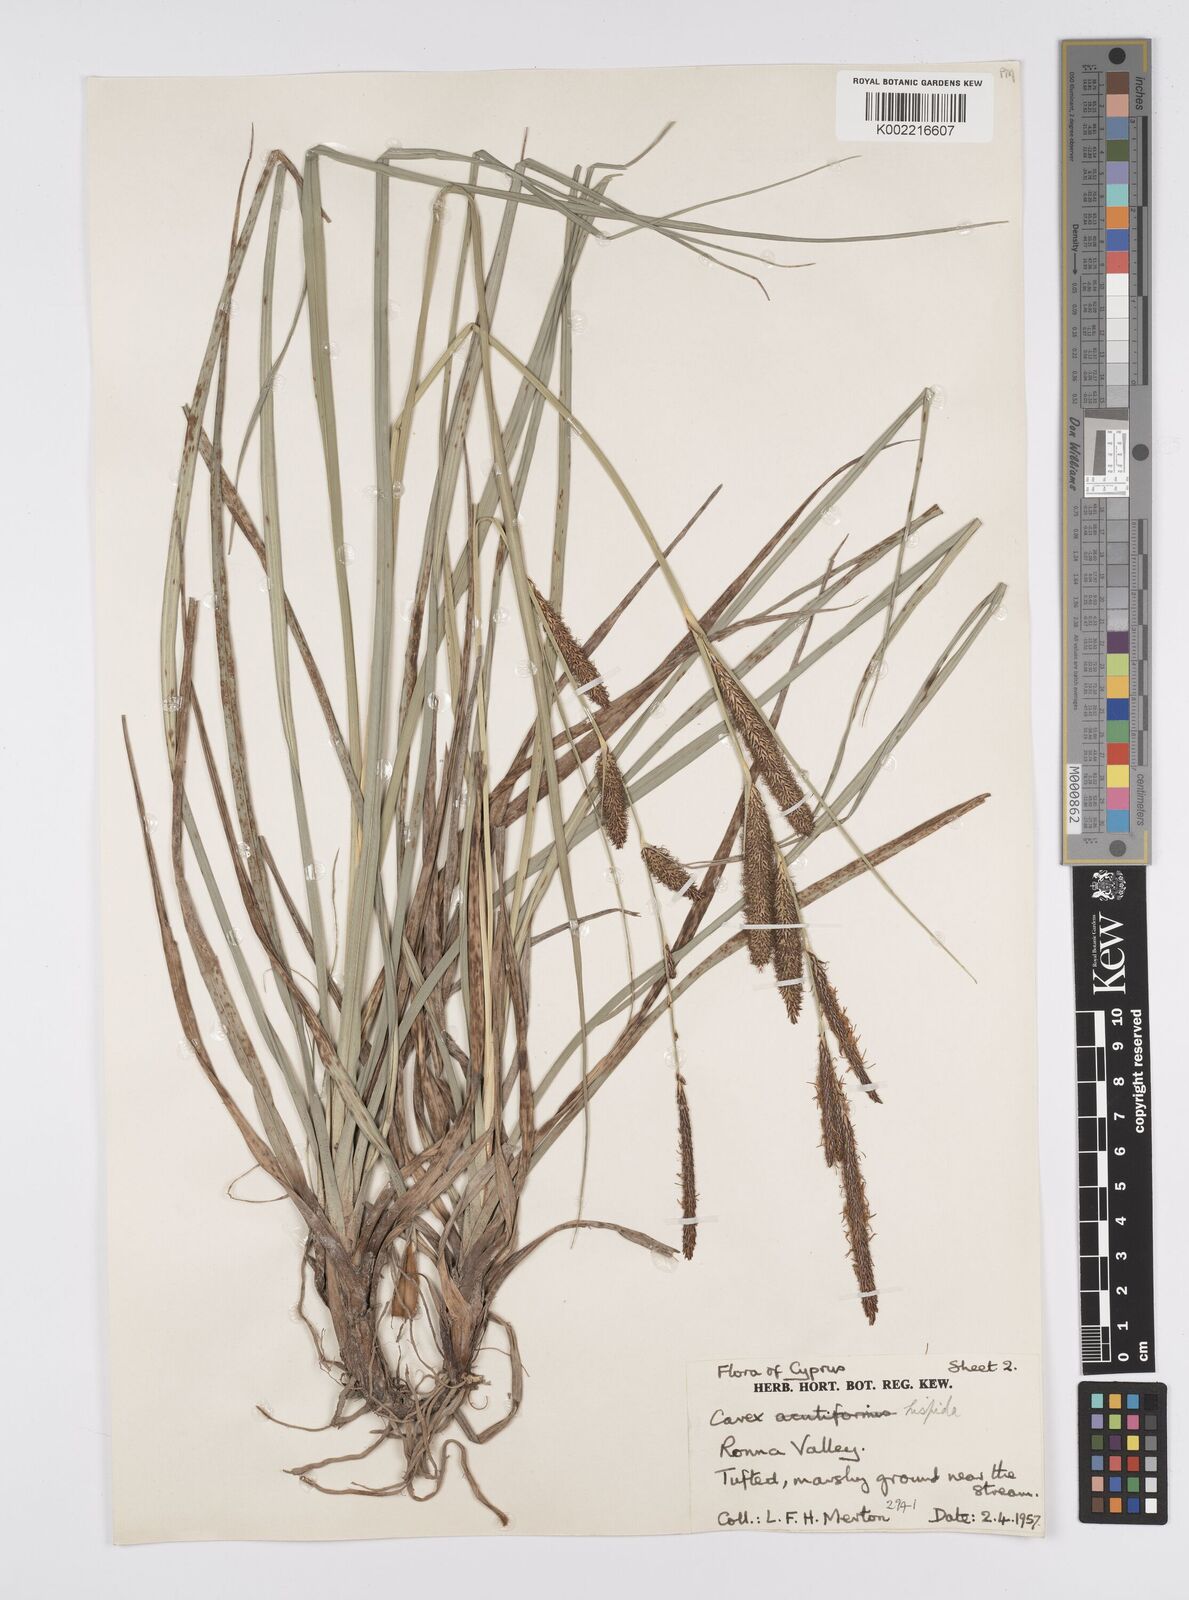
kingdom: Plantae
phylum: Tracheophyta
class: Liliopsida
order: Poales
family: Cyperaceae
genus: Carex
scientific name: Carex hispida
